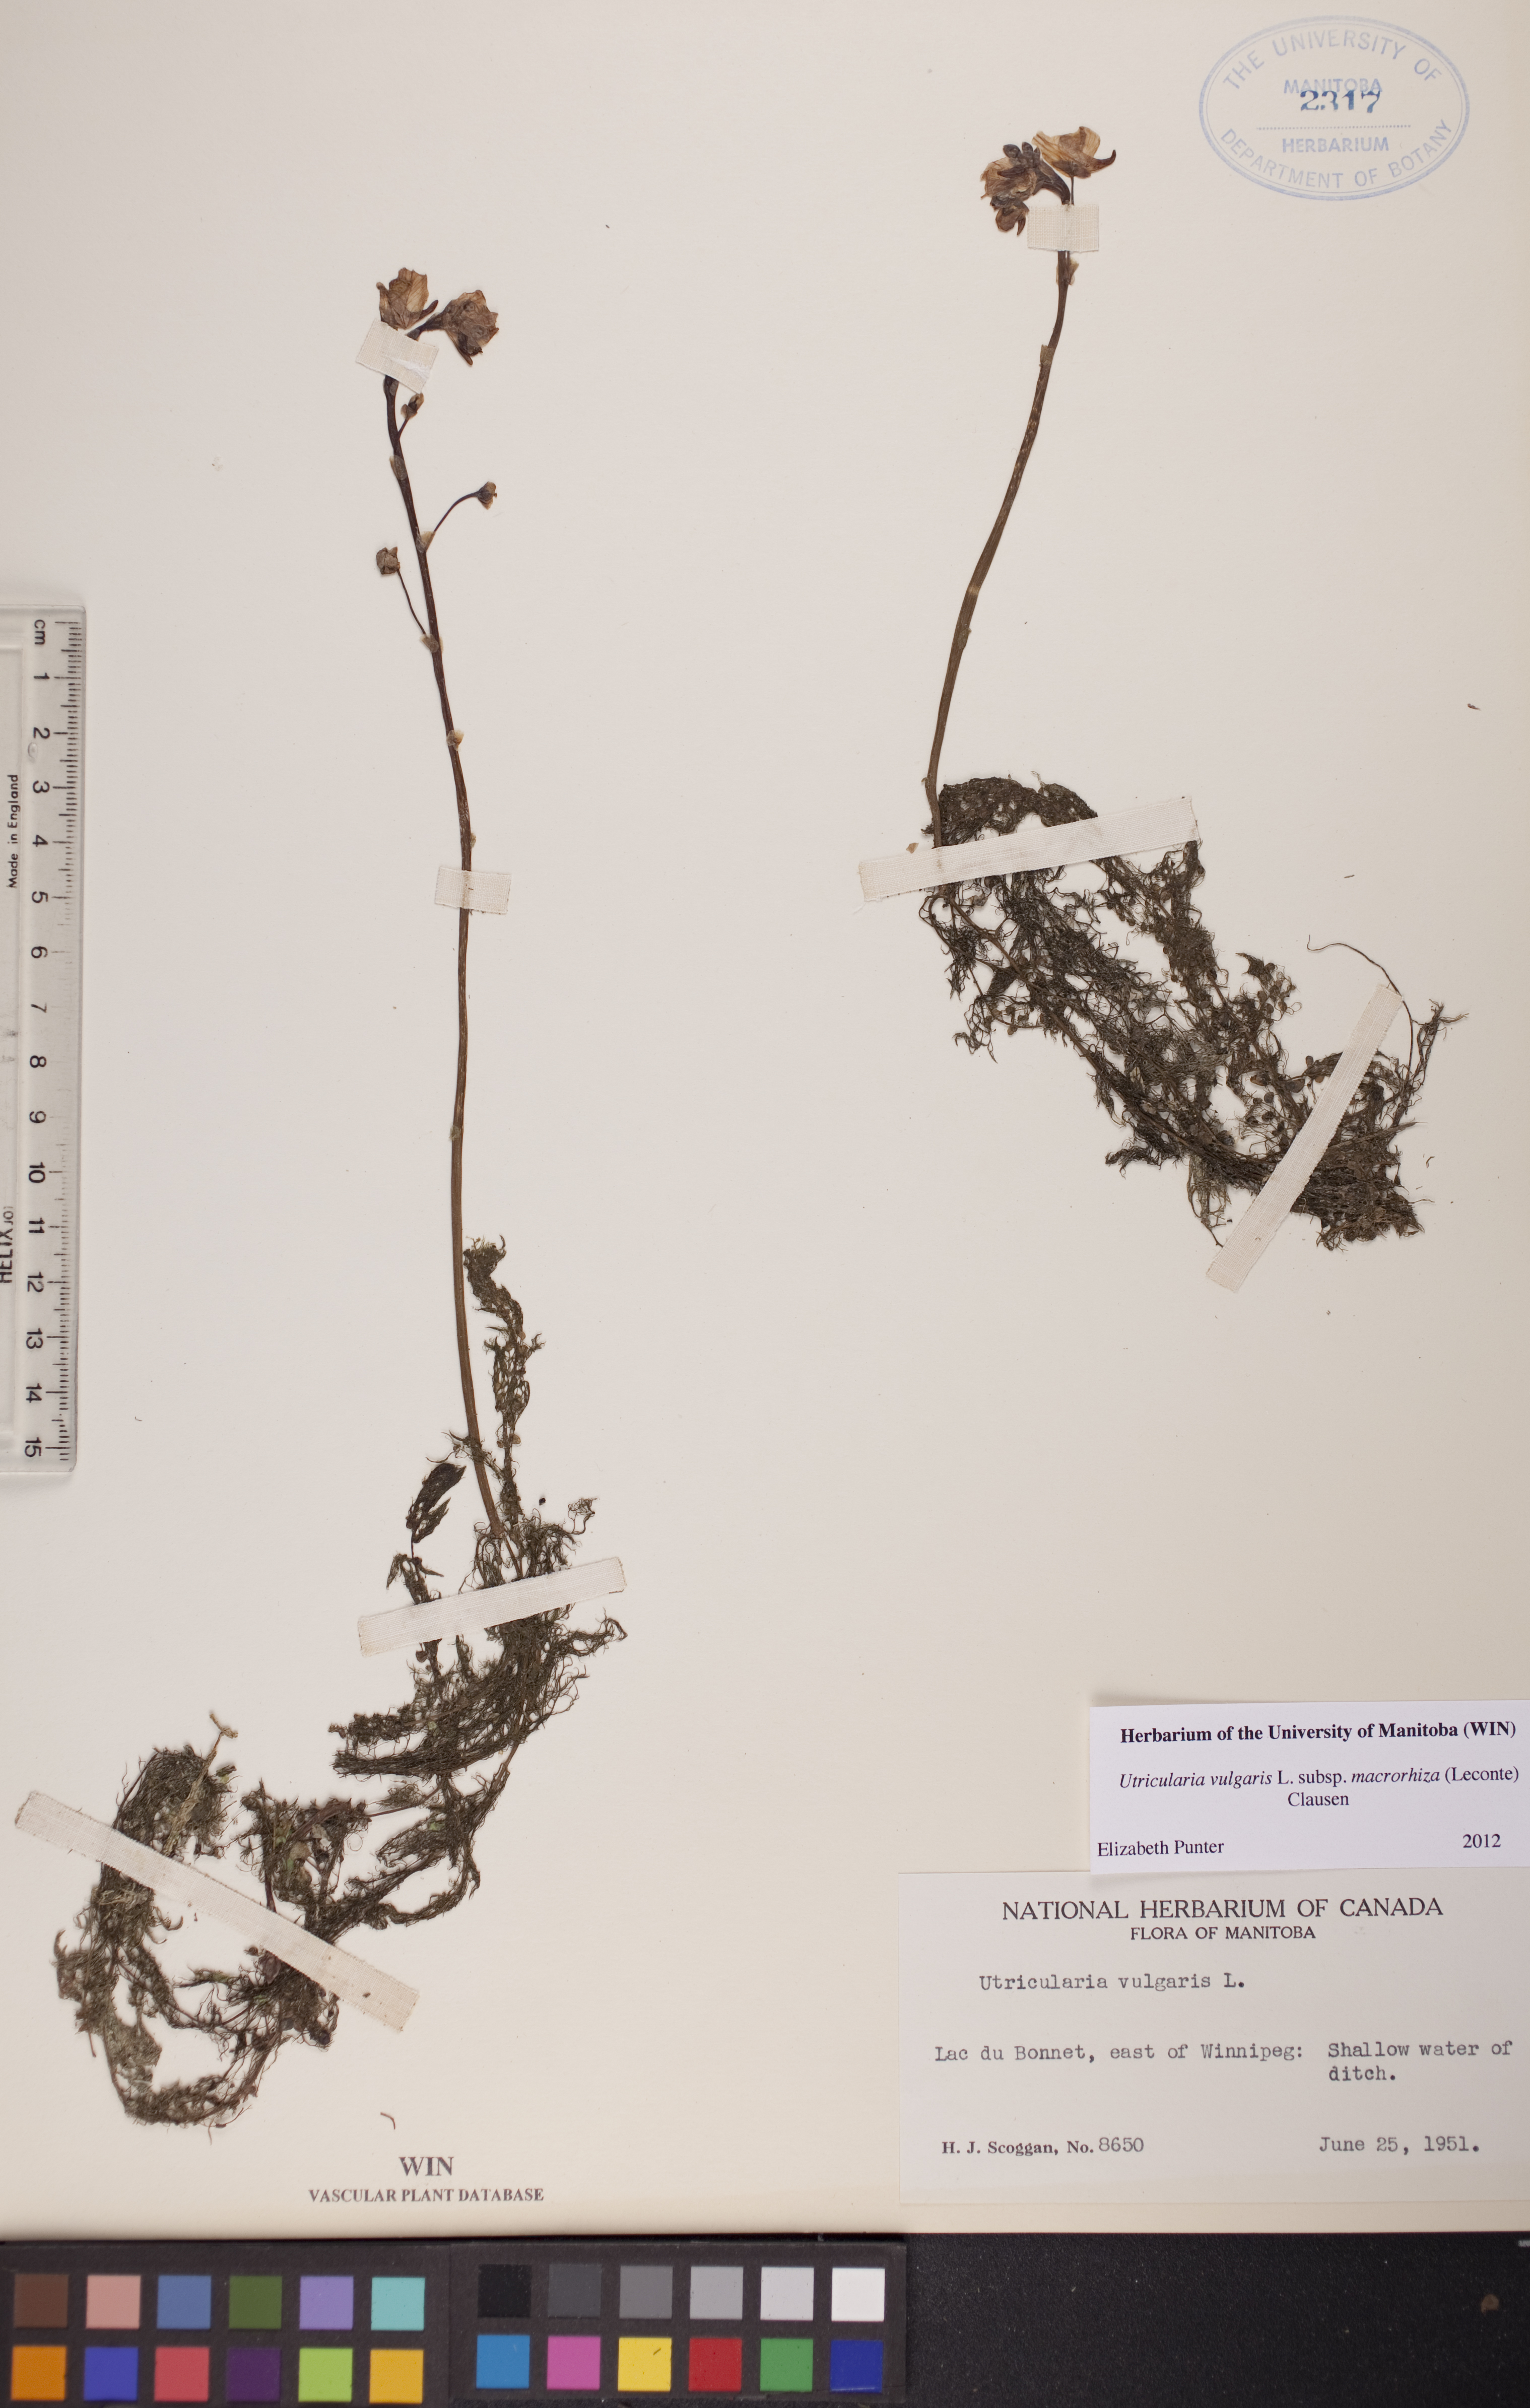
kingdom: Plantae
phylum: Tracheophyta
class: Magnoliopsida
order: Lamiales
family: Lentibulariaceae
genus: Utricularia
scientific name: Utricularia macrorhiza
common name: Common bladderwort
